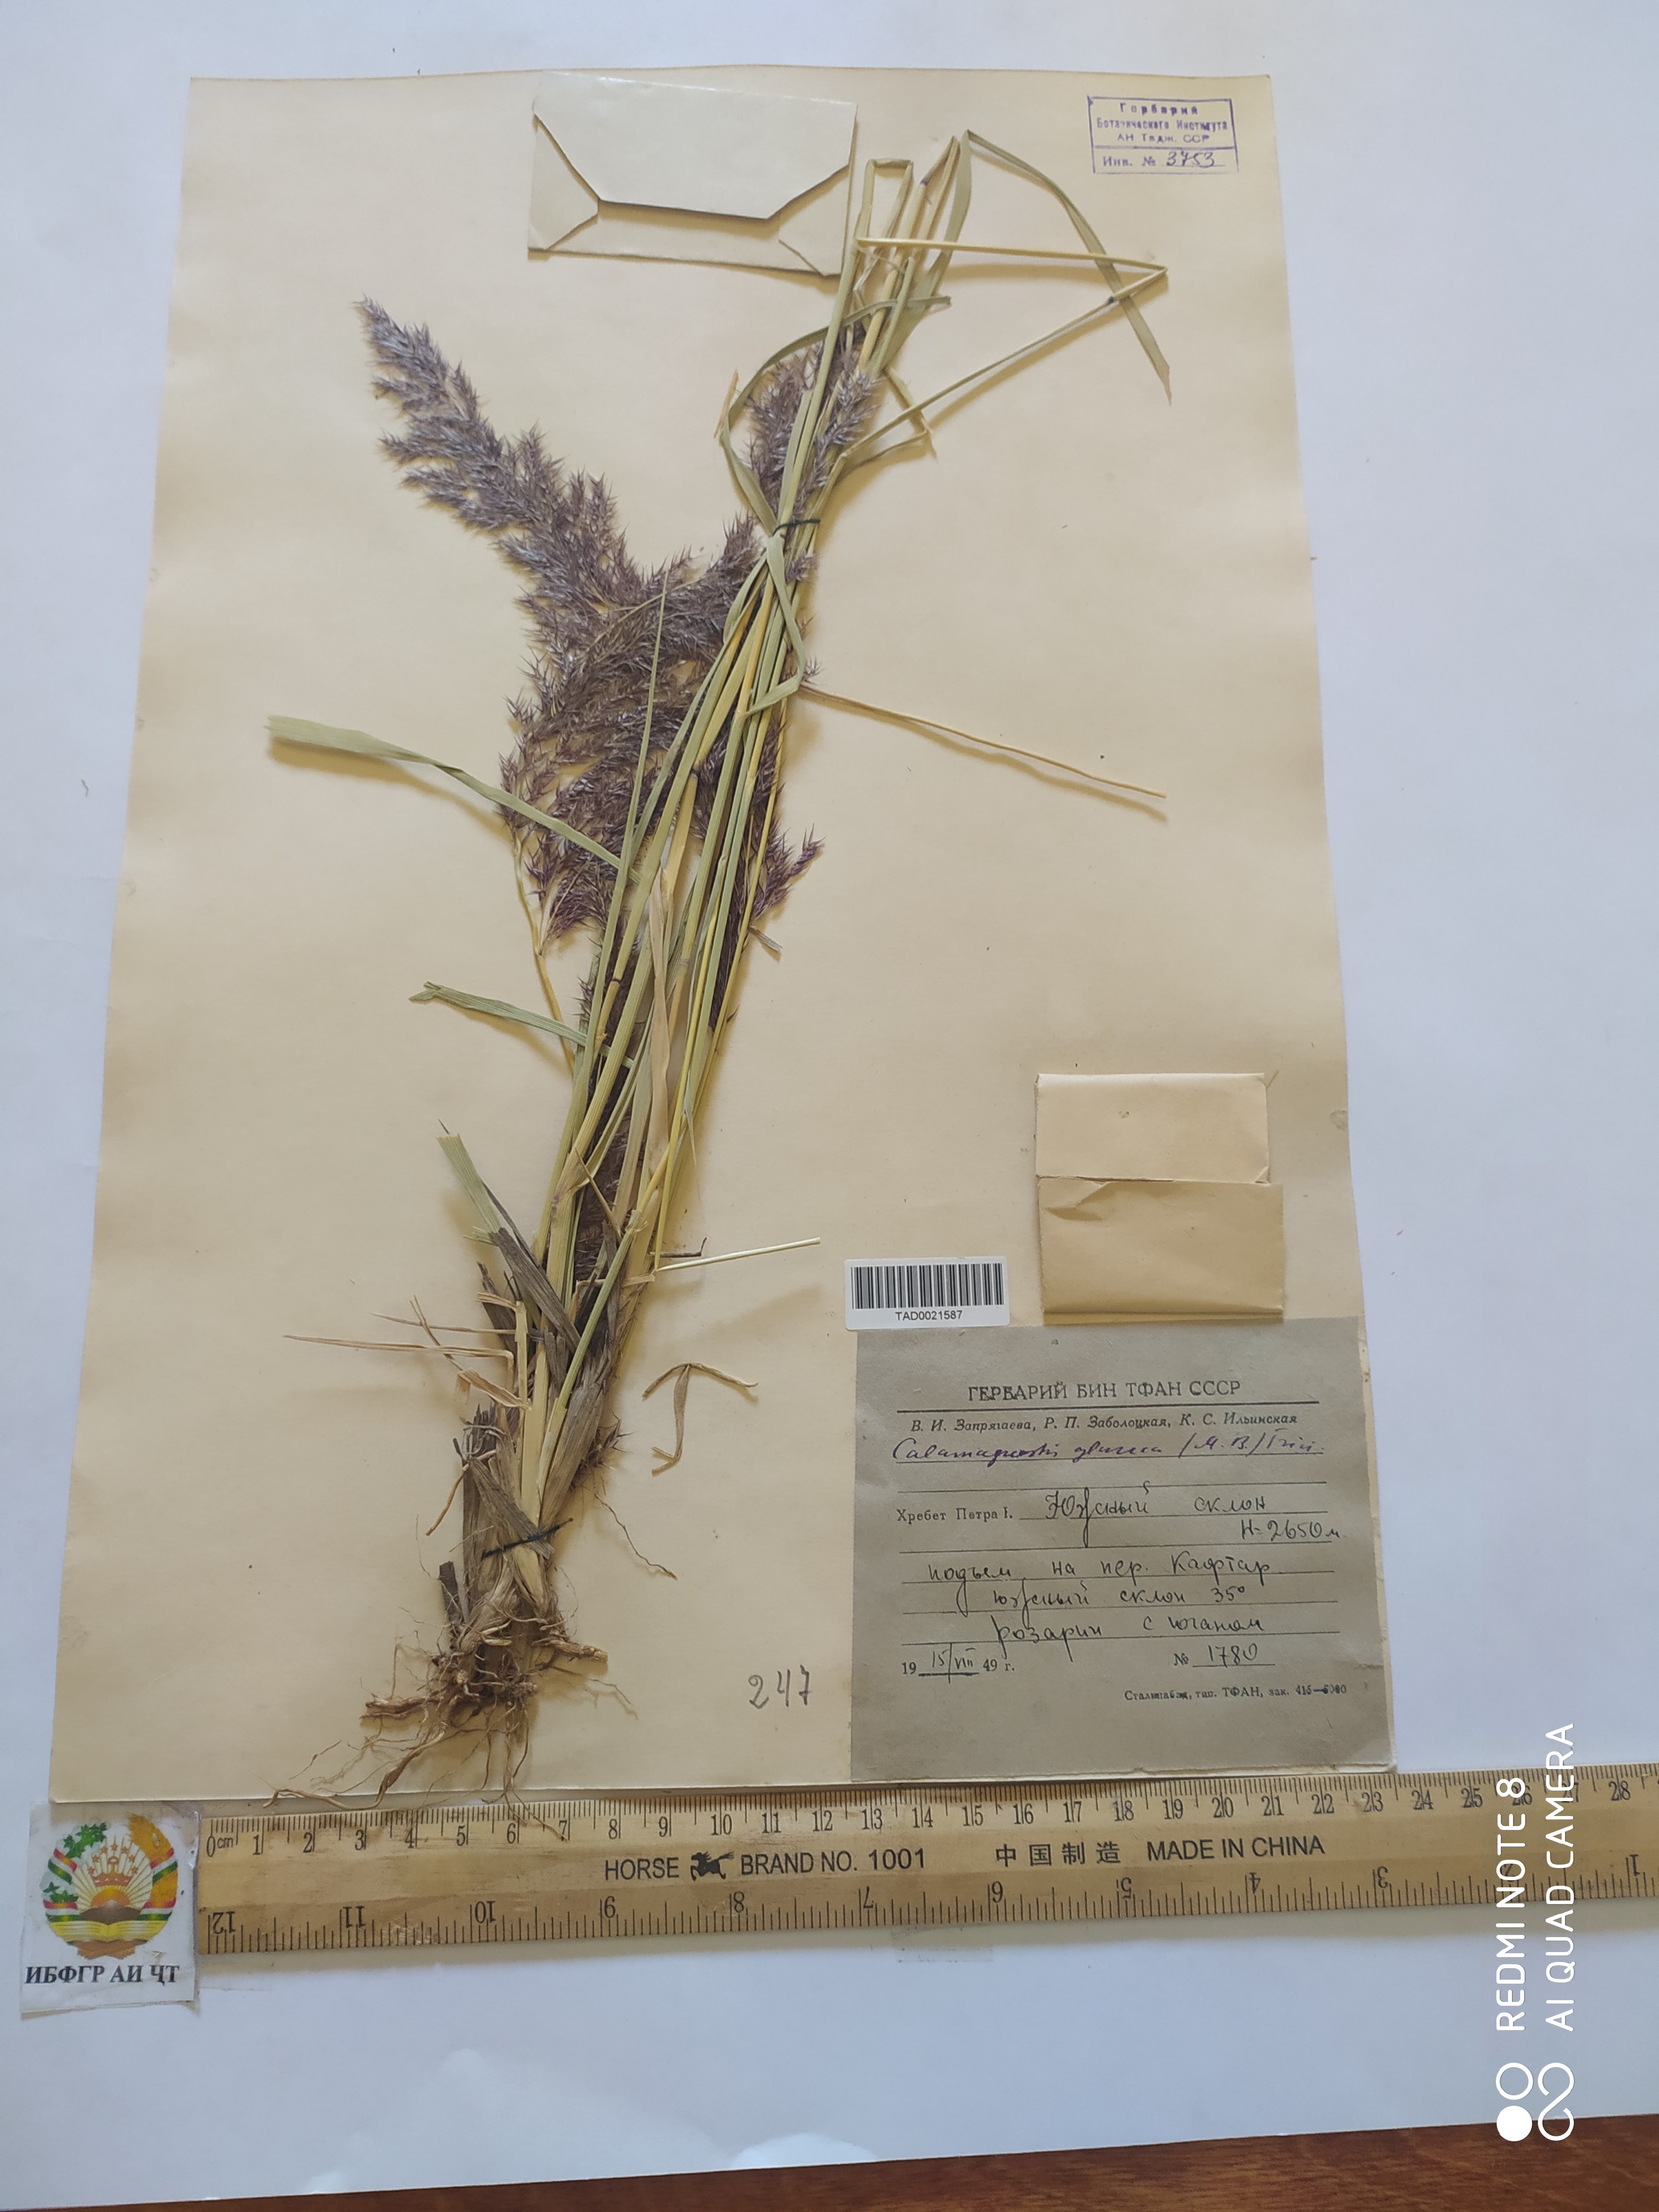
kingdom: Plantae
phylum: Tracheophyta
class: Liliopsida
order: Poales
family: Poaceae
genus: Calamagrostis
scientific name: Calamagrostis pseudophragmites
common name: Coastal small-reed
